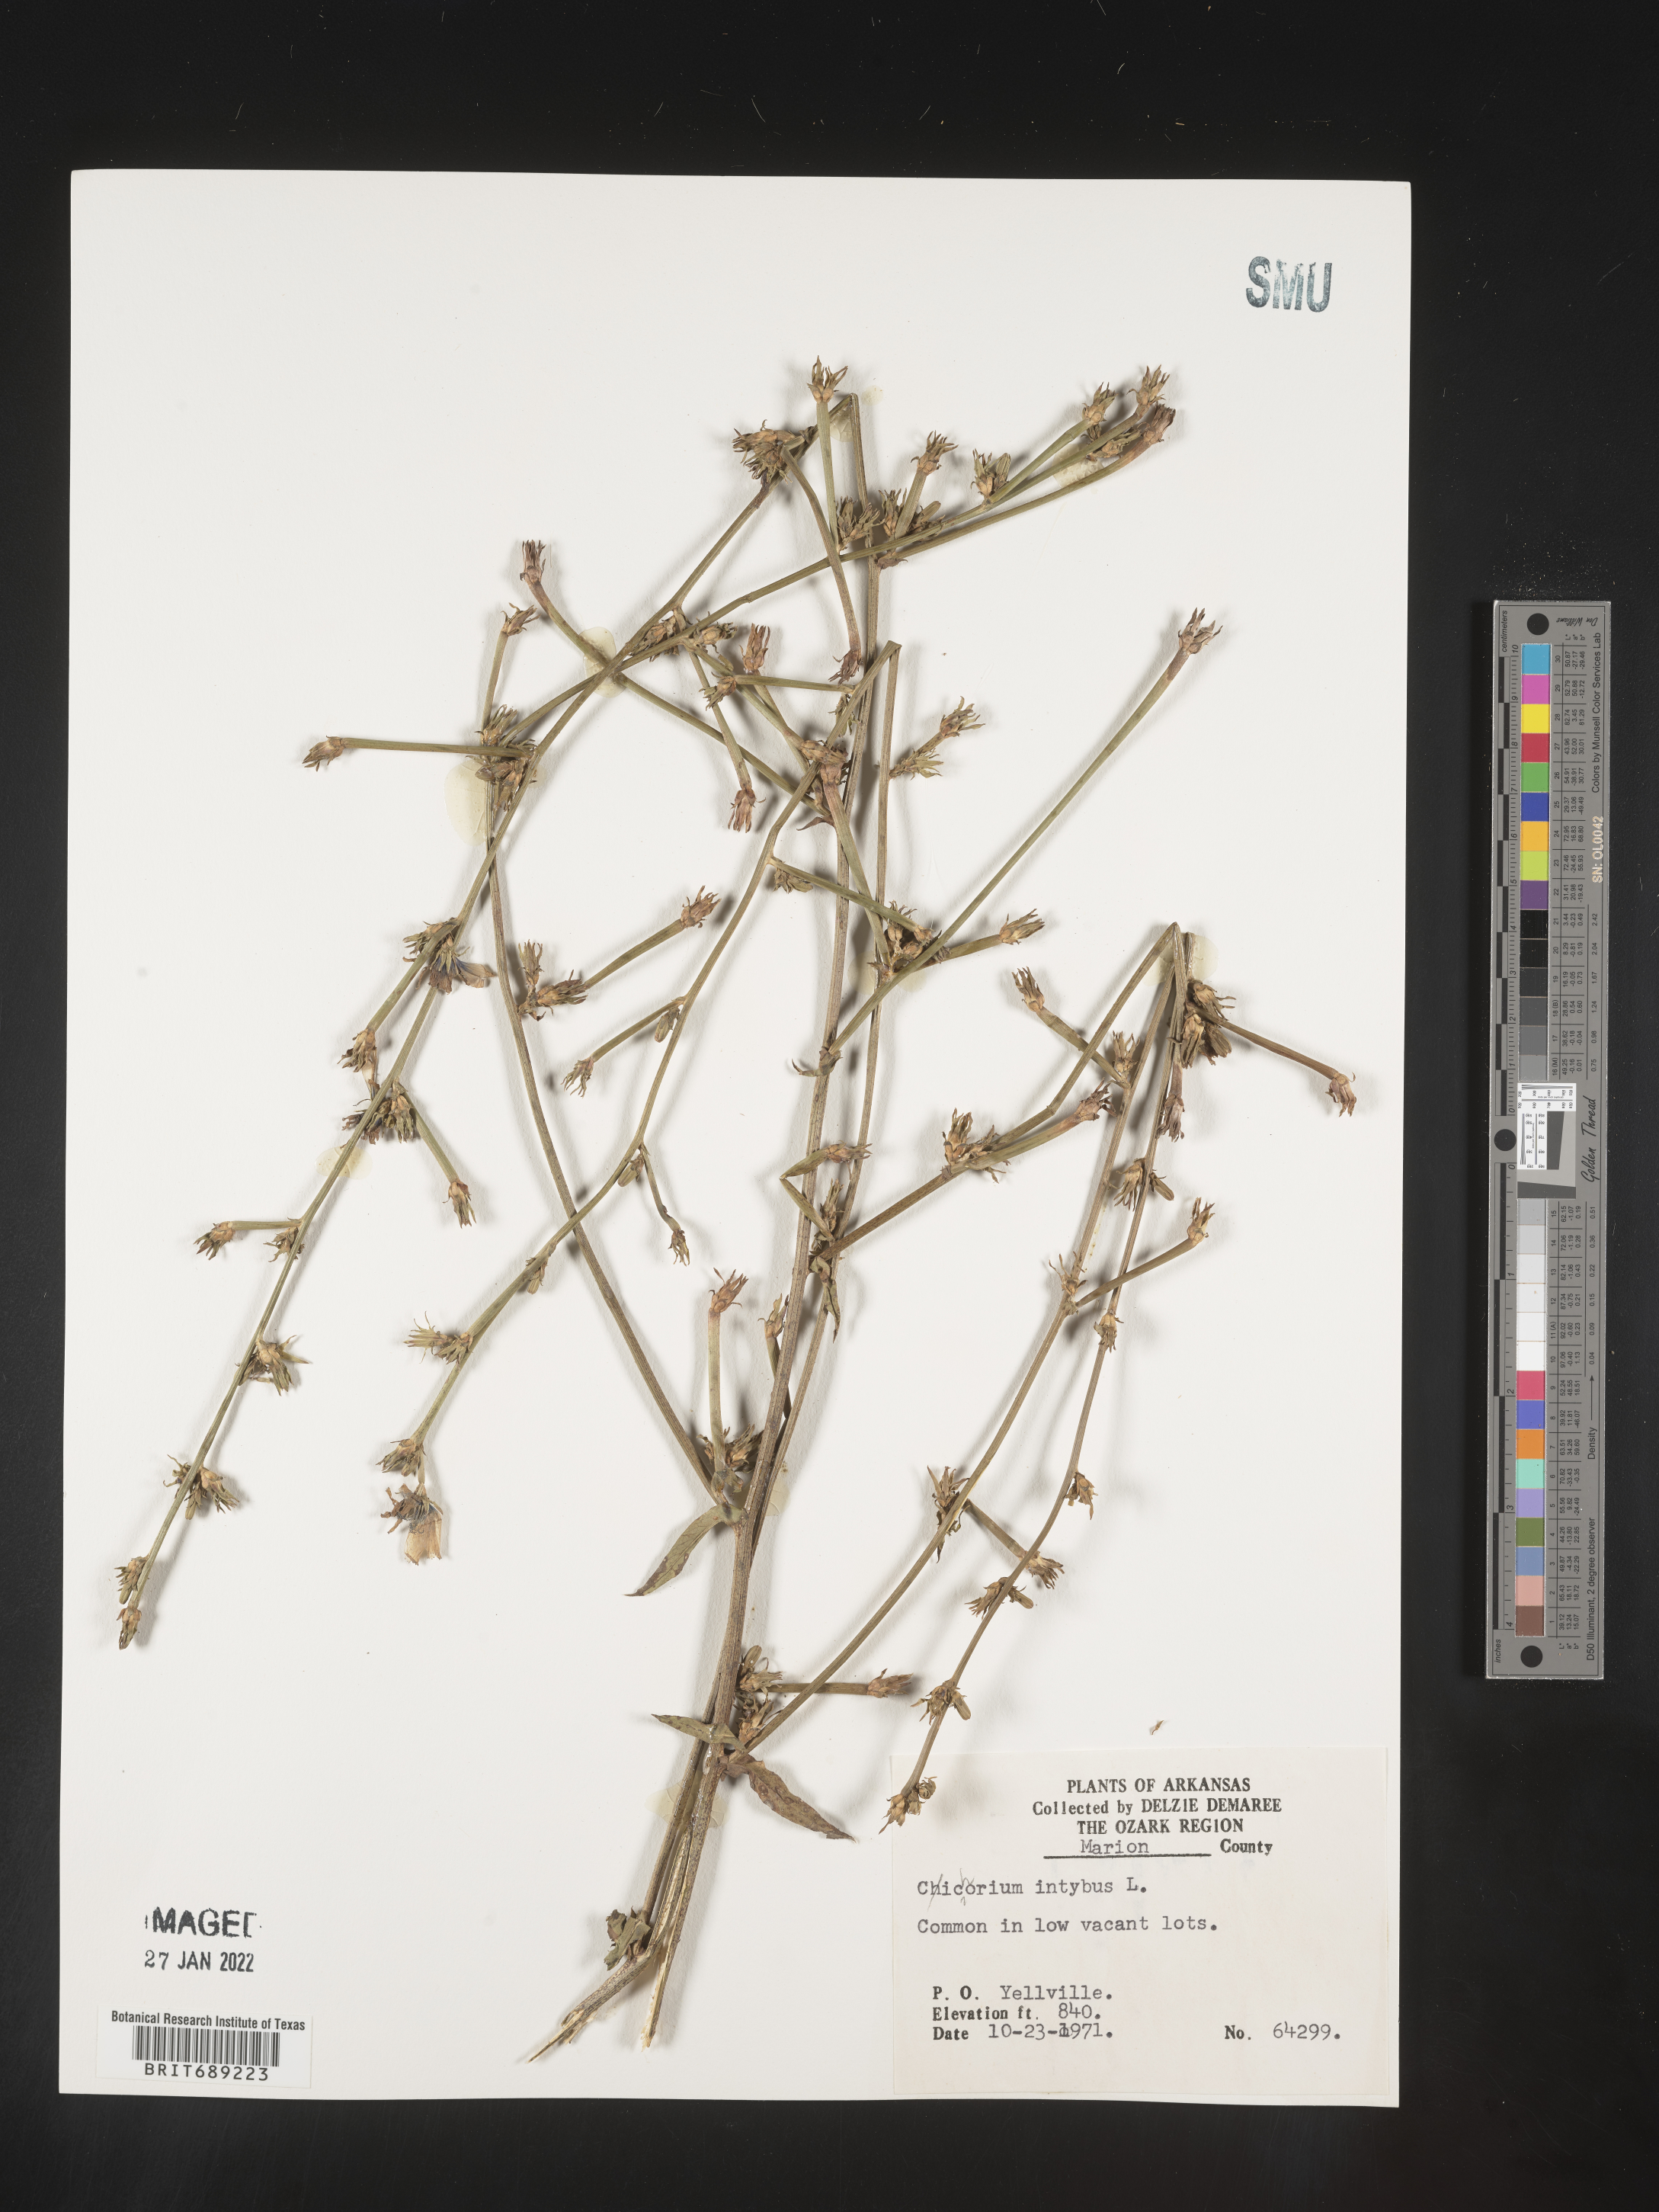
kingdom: Plantae
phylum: Tracheophyta
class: Magnoliopsida
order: Asterales
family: Asteraceae
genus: Cichorium
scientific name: Cichorium intybus
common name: Chicory
